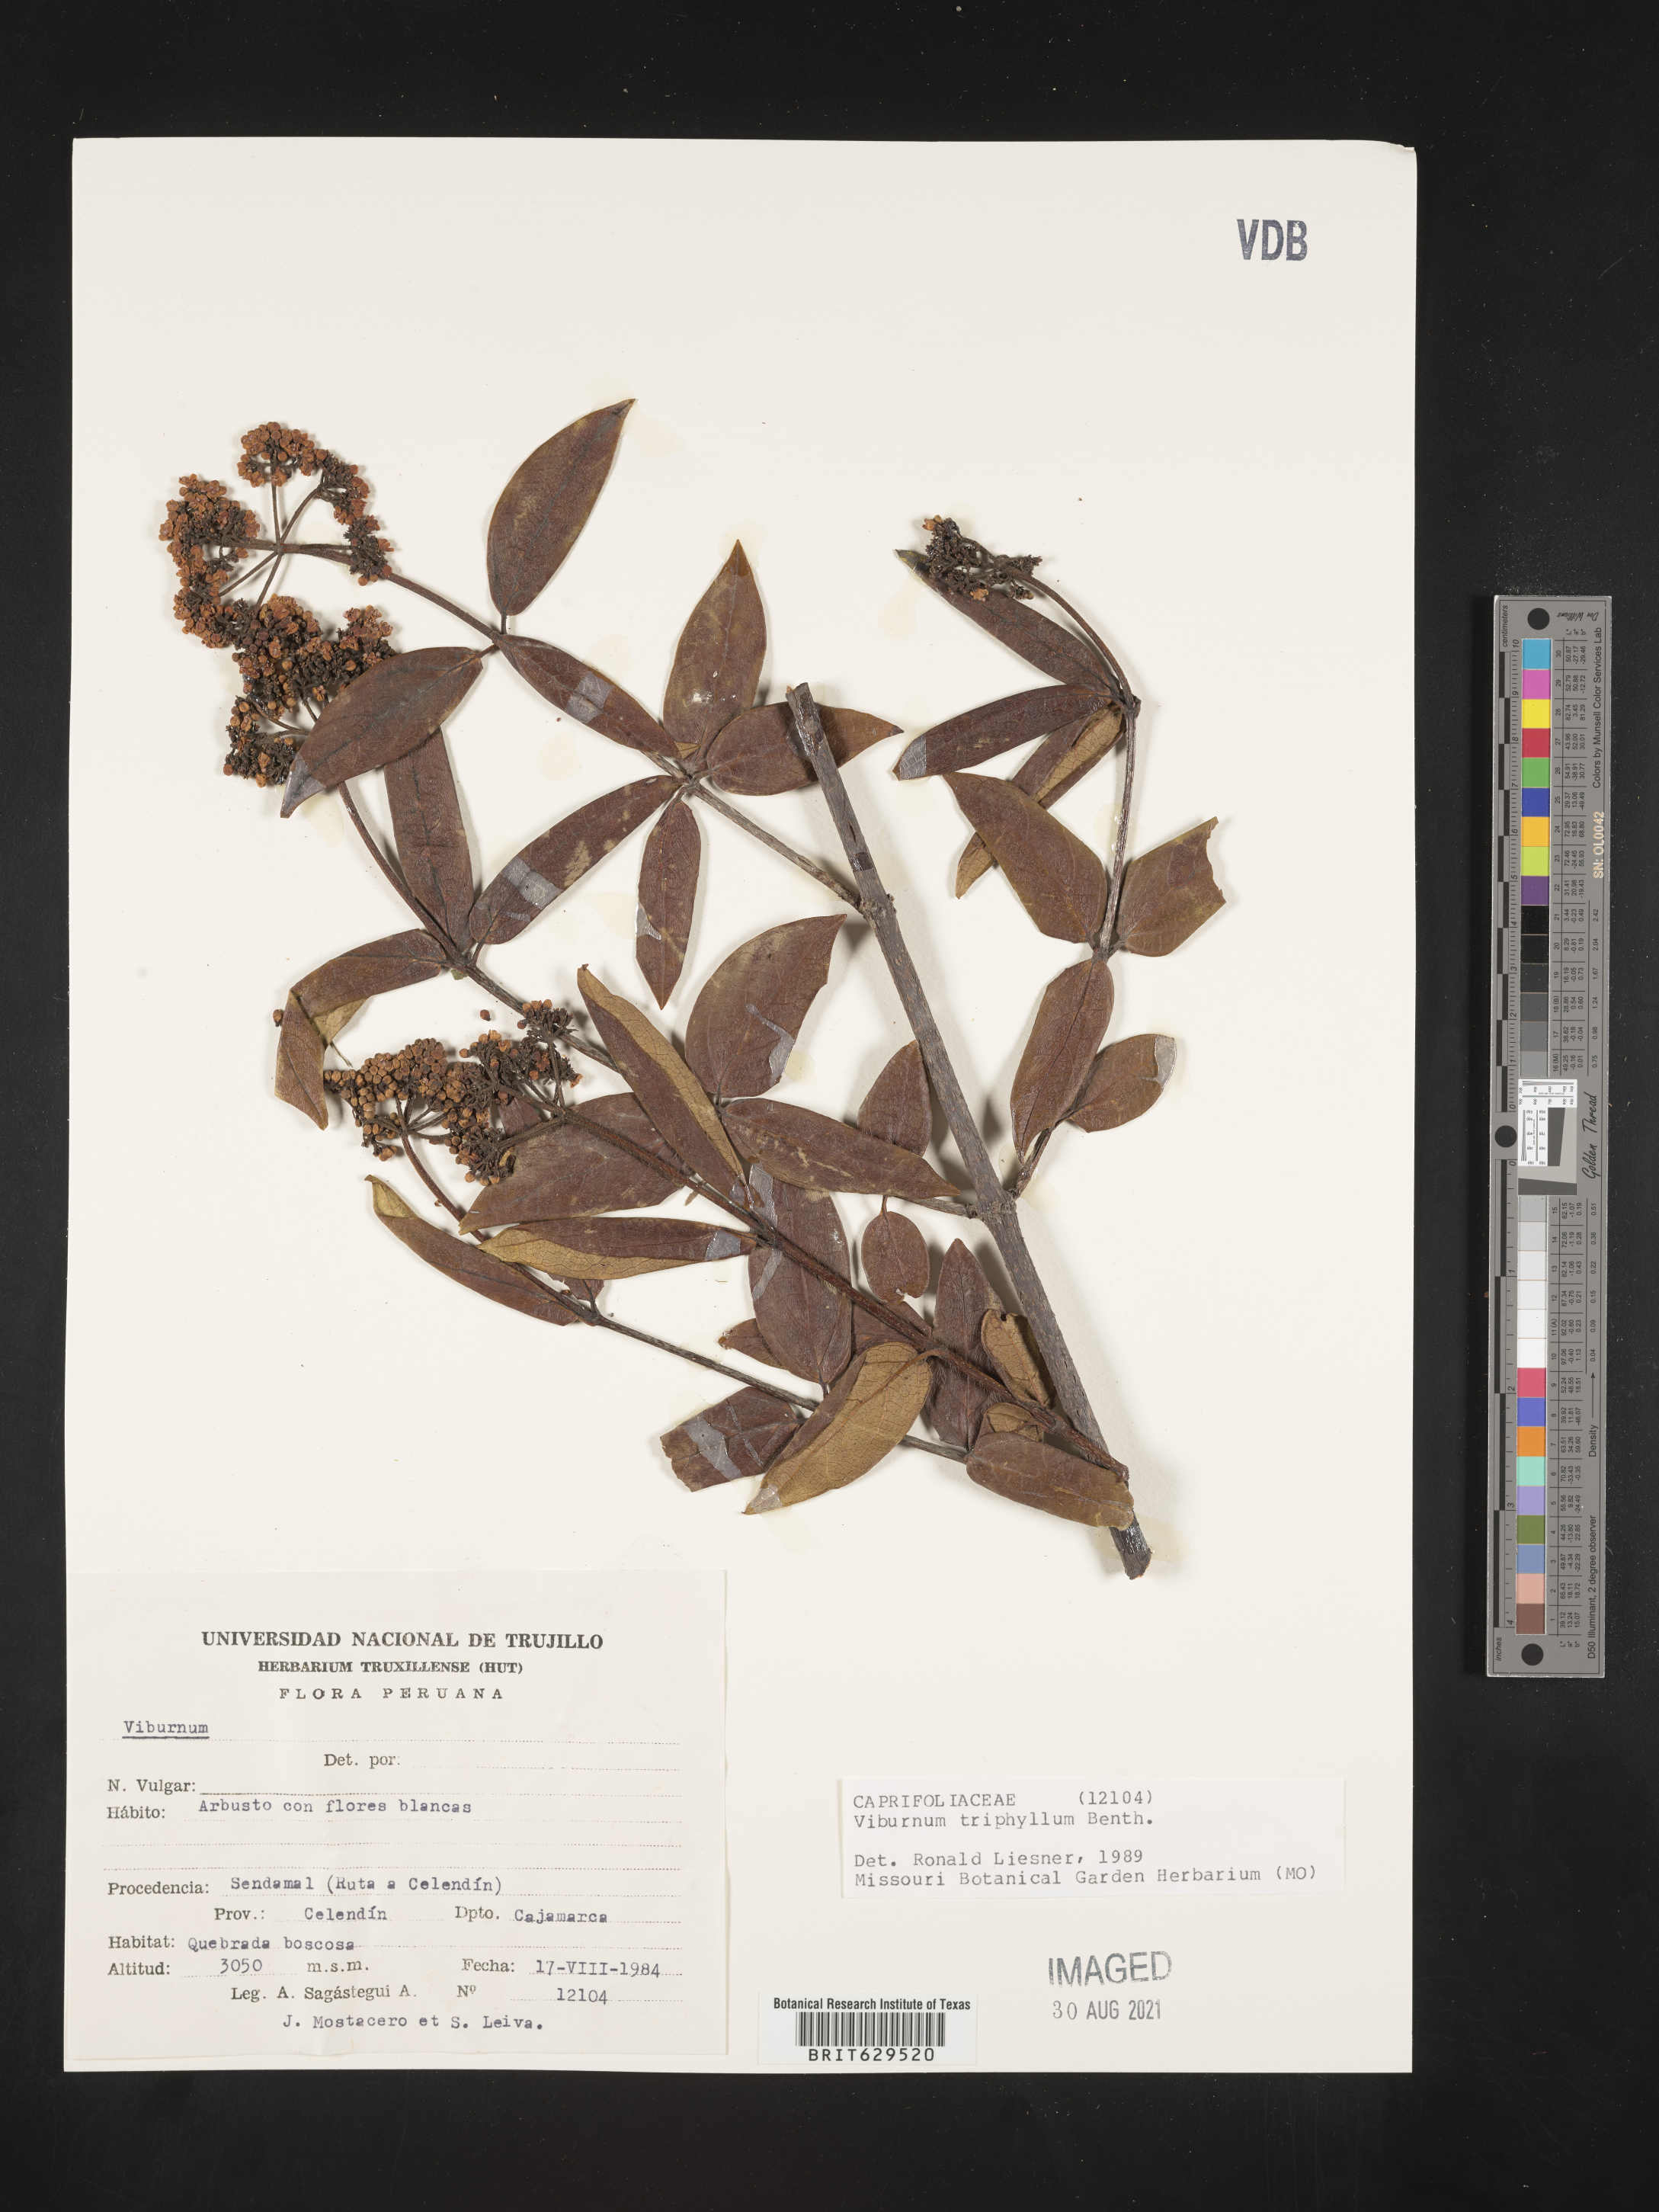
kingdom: Plantae
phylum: Tracheophyta
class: Magnoliopsida
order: Dipsacales
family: Viburnaceae
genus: Viburnum
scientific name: Viburnum triphyllum
